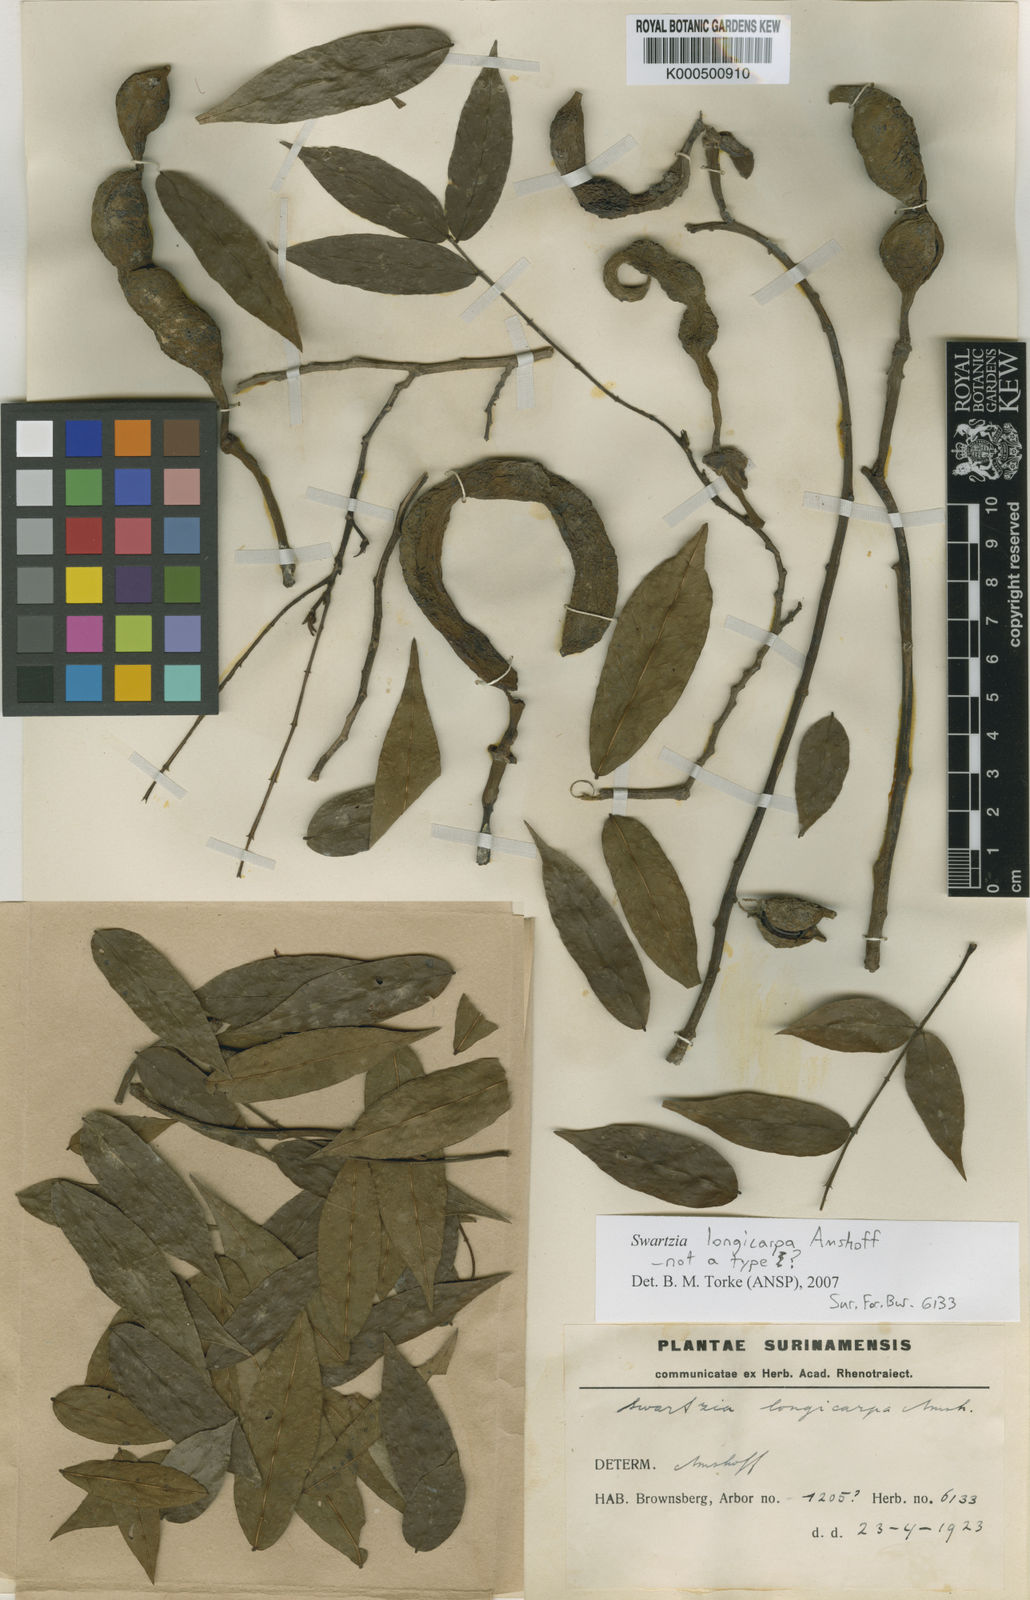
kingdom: Plantae
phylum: Tracheophyta
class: Magnoliopsida
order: Fabales
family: Fabaceae
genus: Swartzia
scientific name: Swartzia longicarpa
